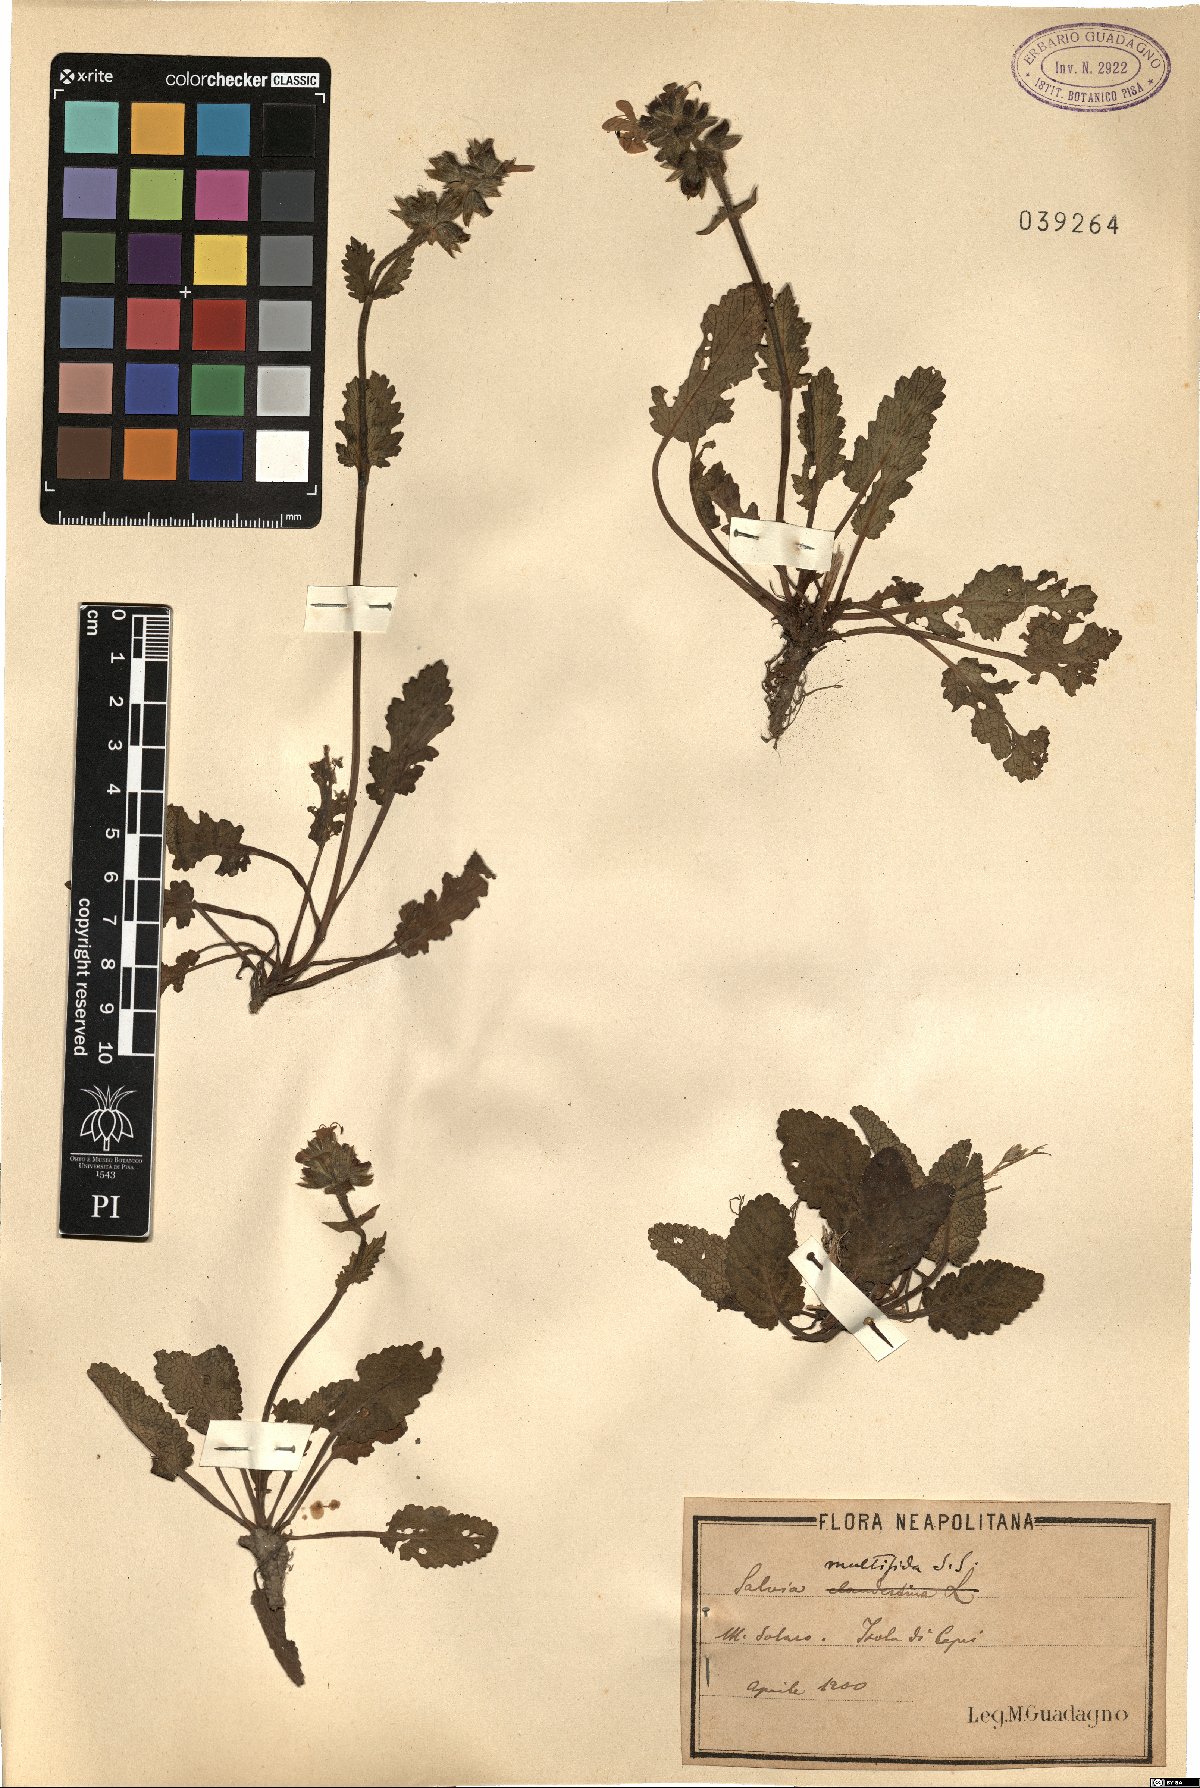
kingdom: Plantae
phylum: Tracheophyta
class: Magnoliopsida
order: Lamiales
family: Lamiaceae
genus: Salvia
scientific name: Salvia verbenaca
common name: Wild clary
